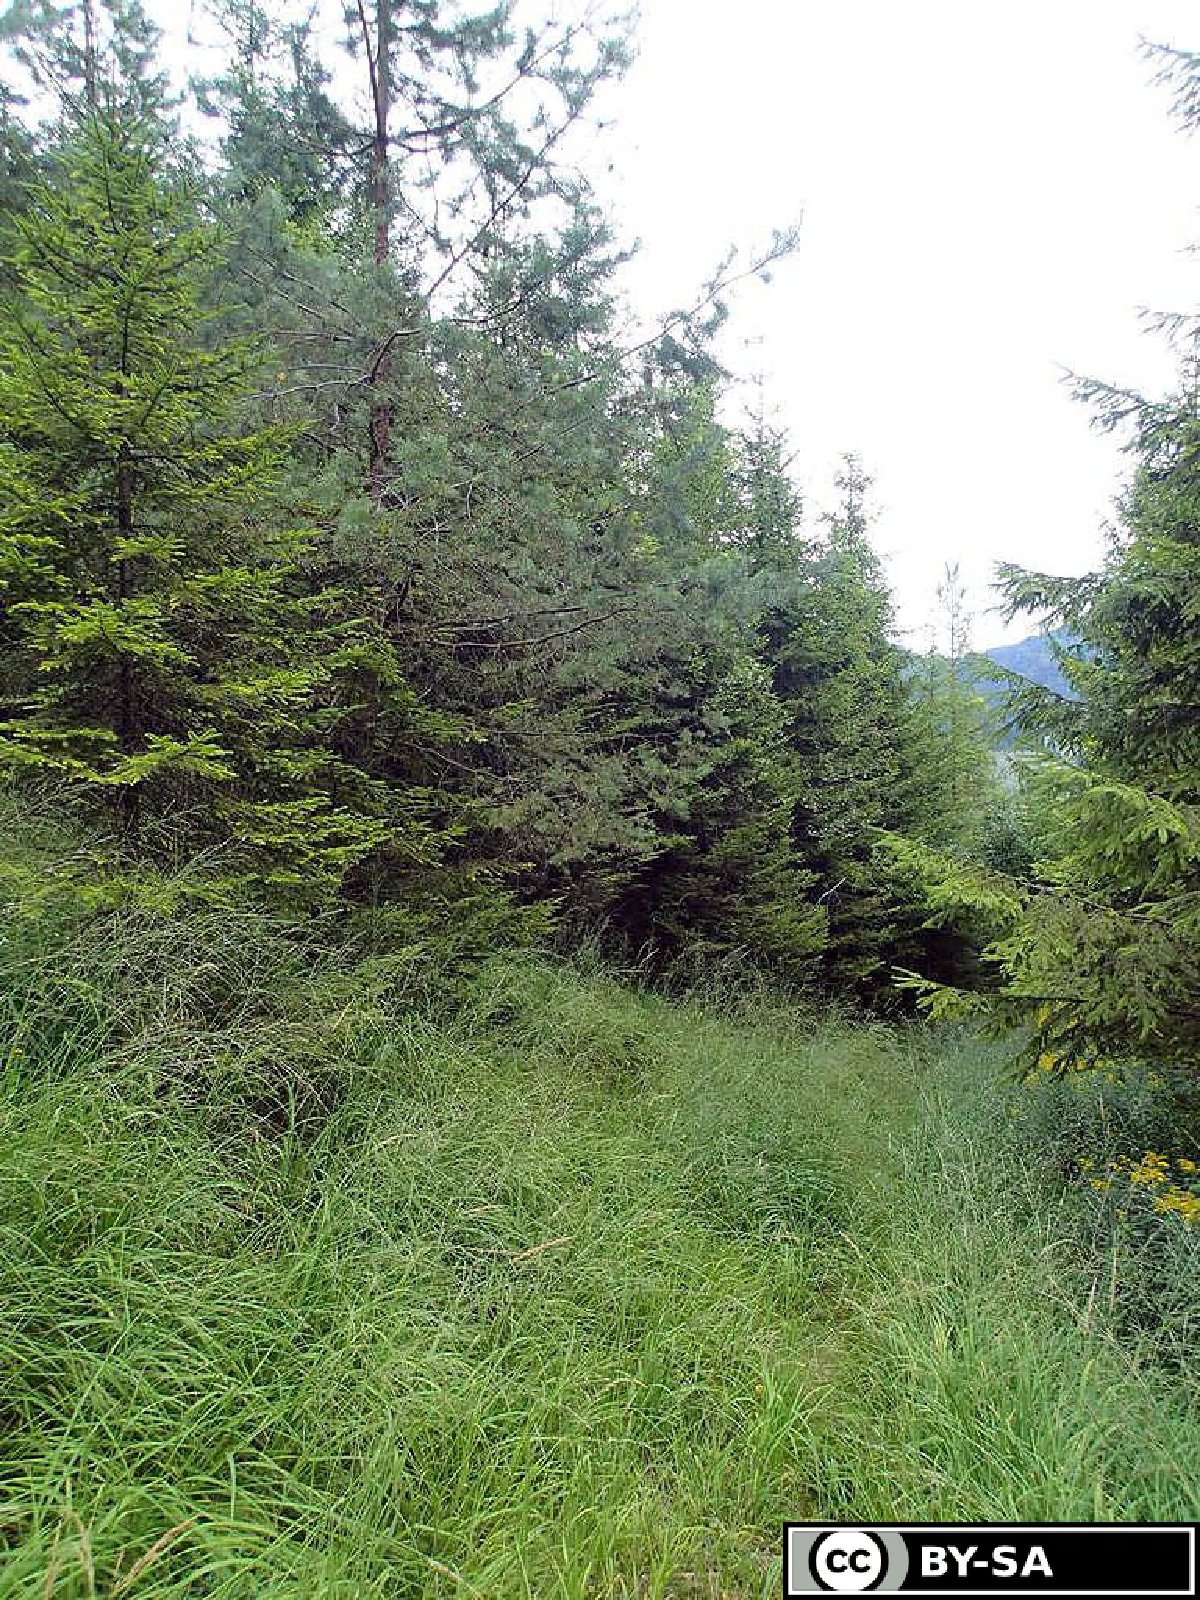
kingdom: Plantae
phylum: Tracheophyta
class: Magnoliopsida
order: Lamiales
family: Orobanchaceae
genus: Melampyrum
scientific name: Melampyrum subalpinum
